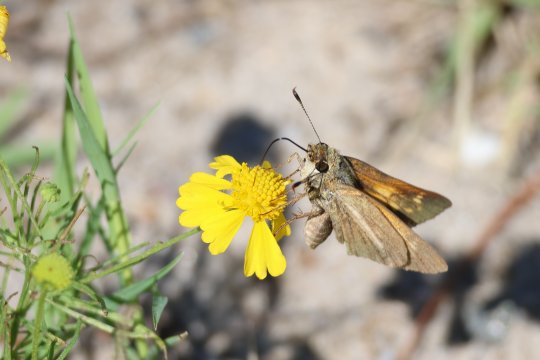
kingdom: Animalia
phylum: Arthropoda
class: Insecta
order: Lepidoptera
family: Hesperiidae
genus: Poanes
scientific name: Poanes aaroni
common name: Aaron's Skipper
